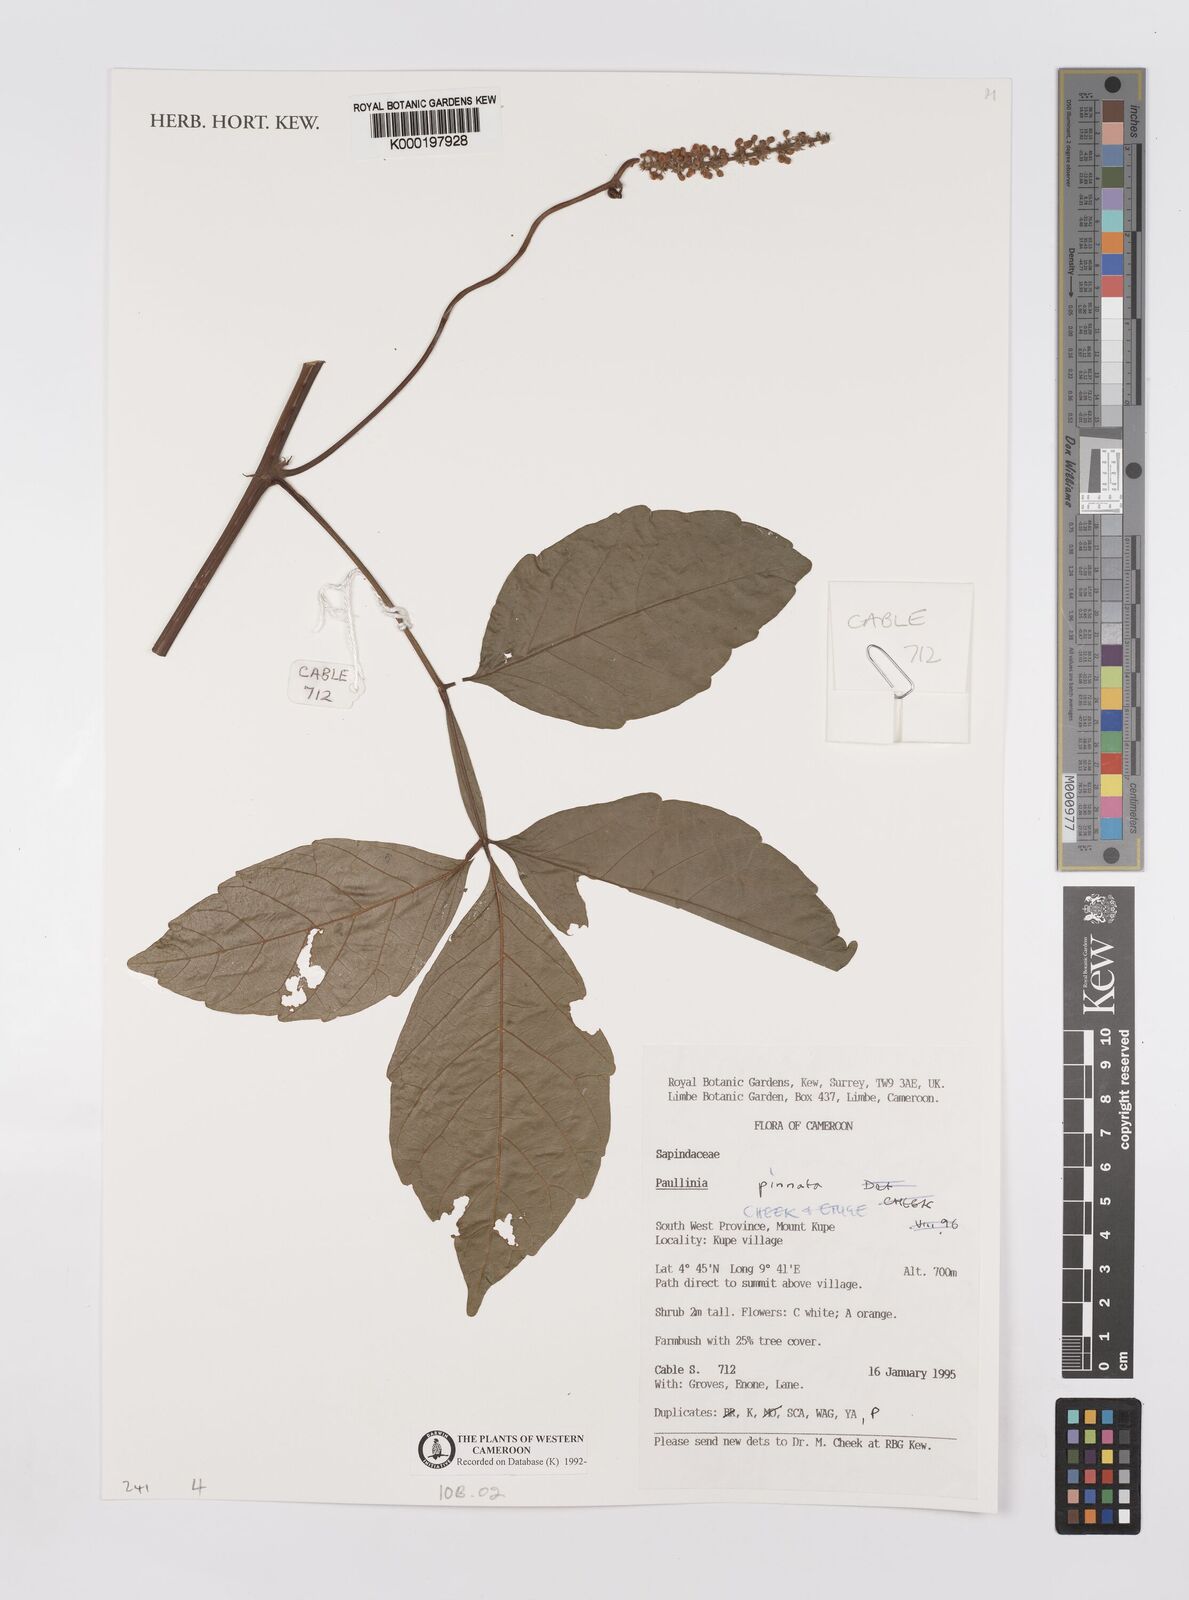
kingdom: Plantae
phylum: Tracheophyta
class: Magnoliopsida
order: Sapindales
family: Sapindaceae
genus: Paullinia
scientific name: Paullinia pinnata
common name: Barbasco
